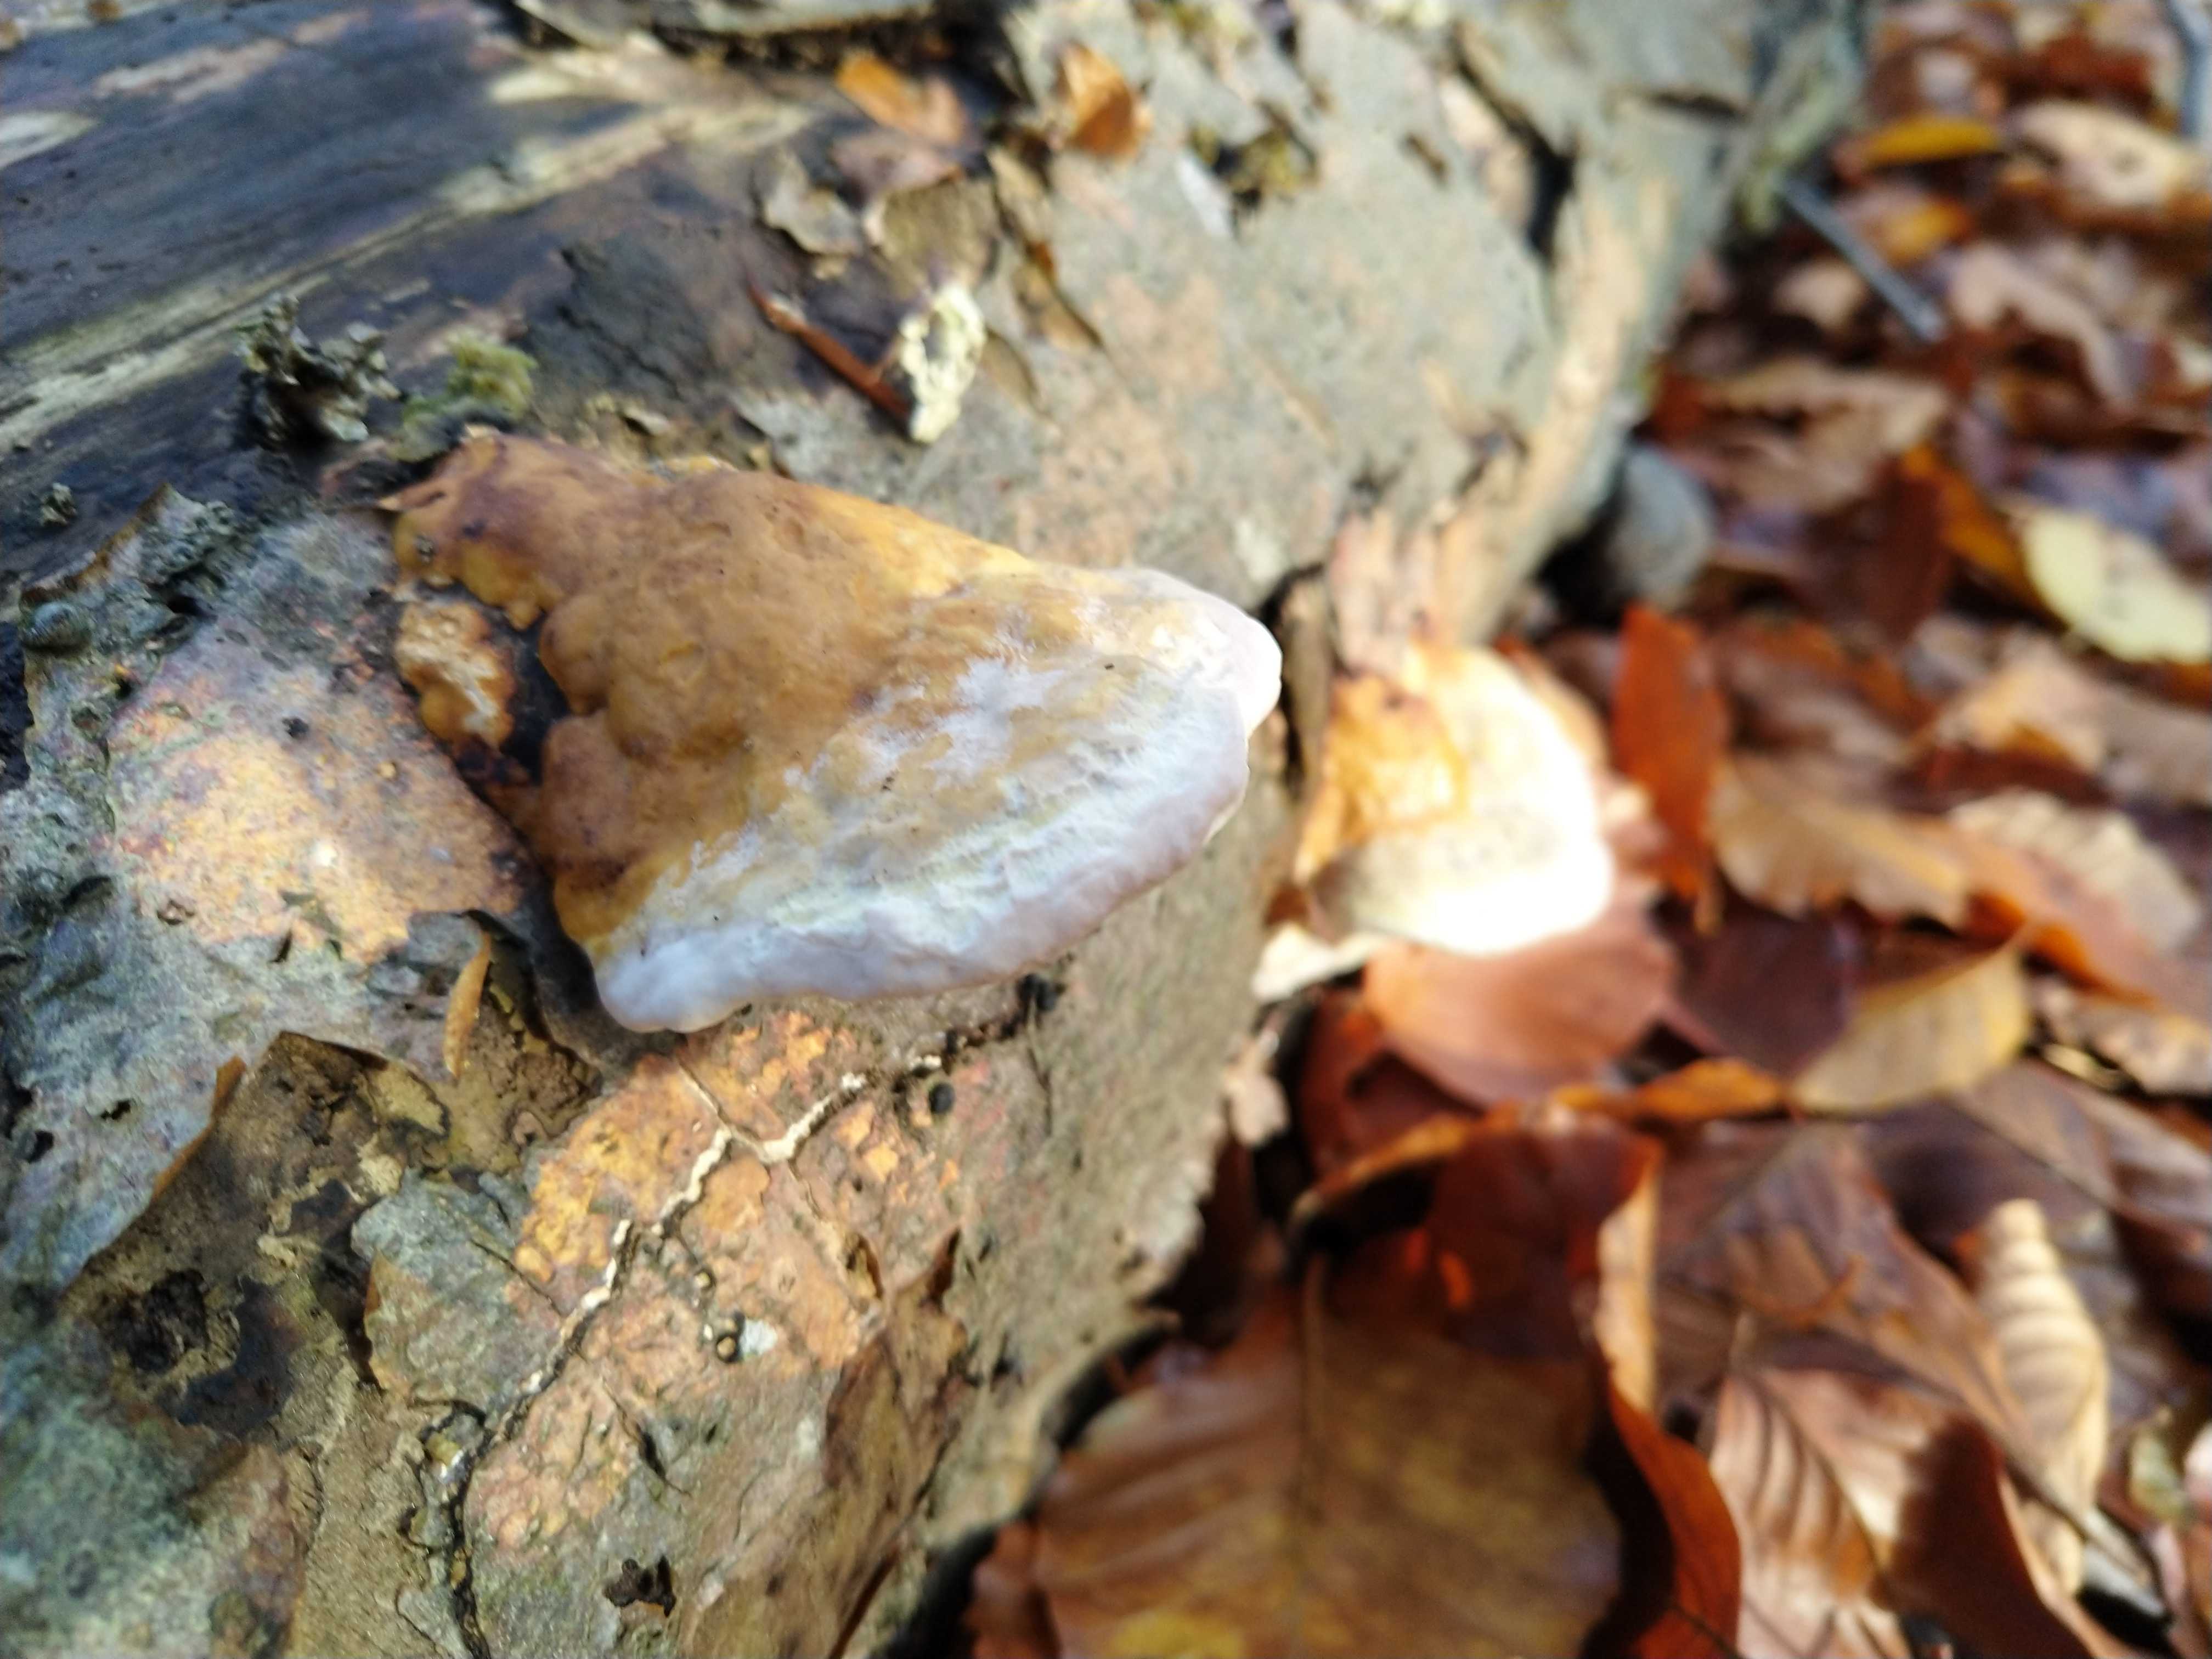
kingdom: Fungi
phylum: Basidiomycota
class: Agaricomycetes
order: Polyporales
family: Fomitopsidaceae
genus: Fomitopsis
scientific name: Fomitopsis pinicola
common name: randbæltet hovporesvamp
